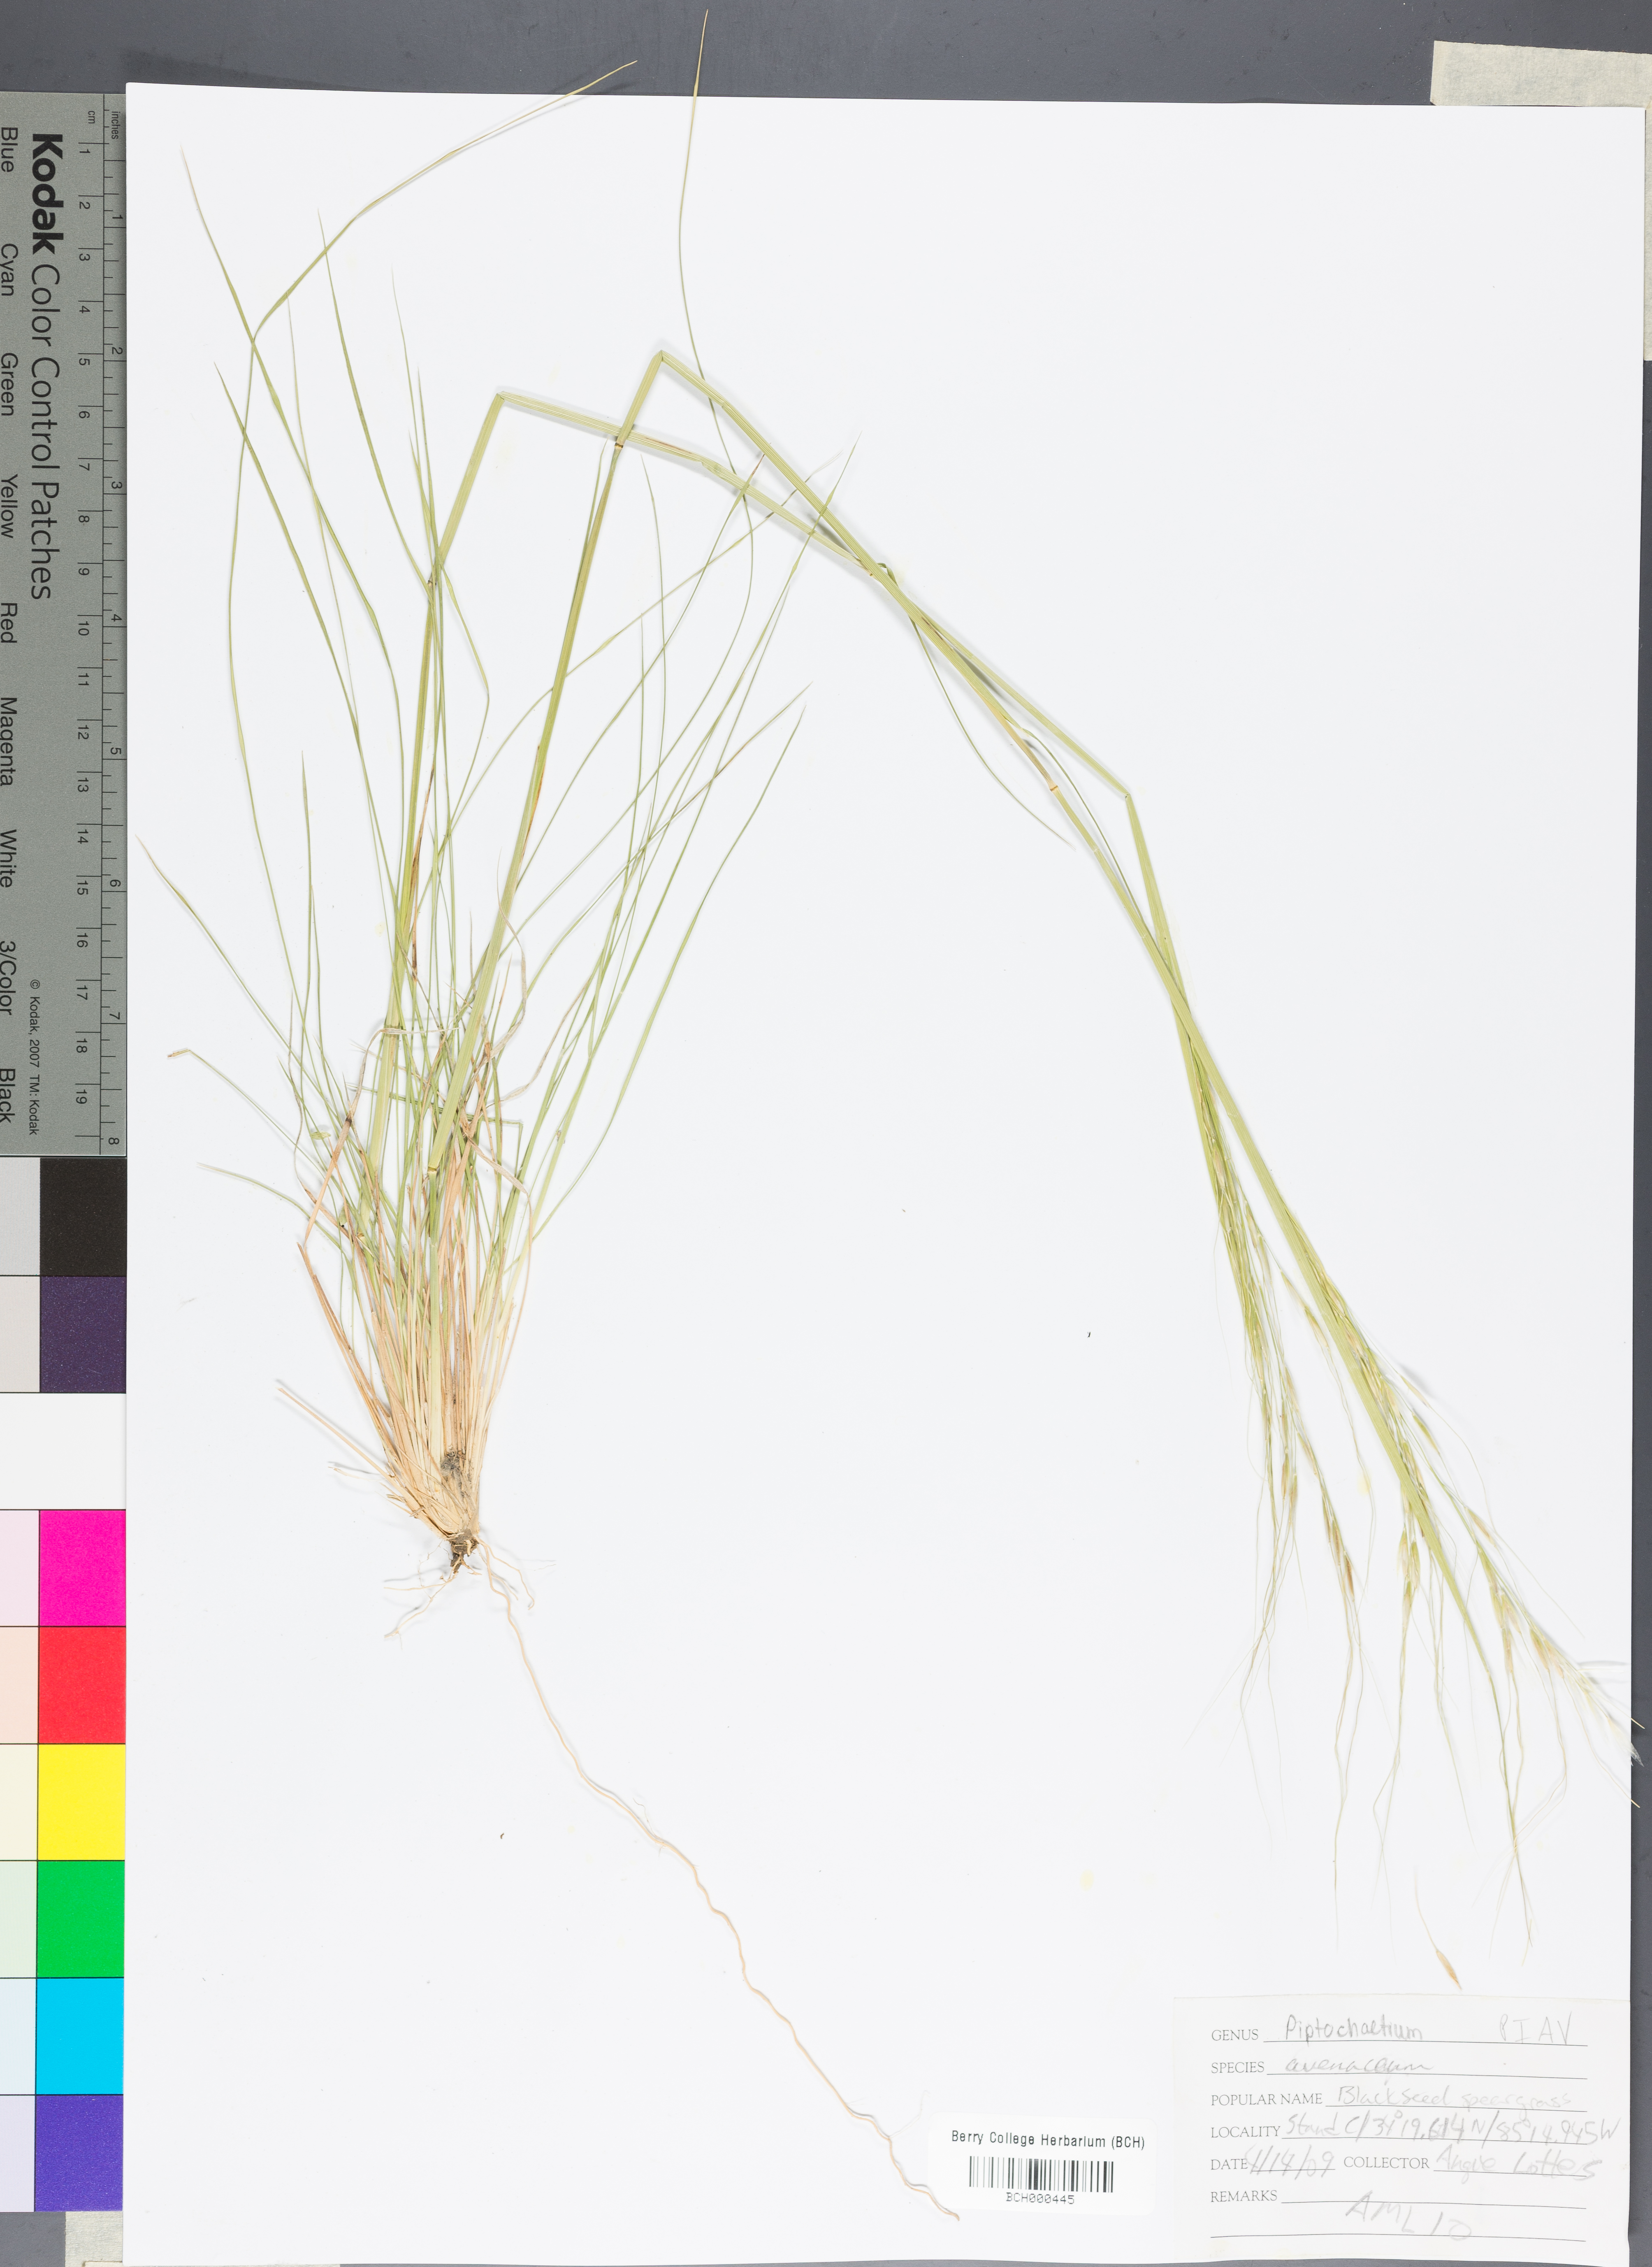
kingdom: Plantae
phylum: Tracheophyta
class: Liliopsida
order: Poales
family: Poaceae
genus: Piptochaetium
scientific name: Piptochaetium avenaceum
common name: Black bunchgrass
